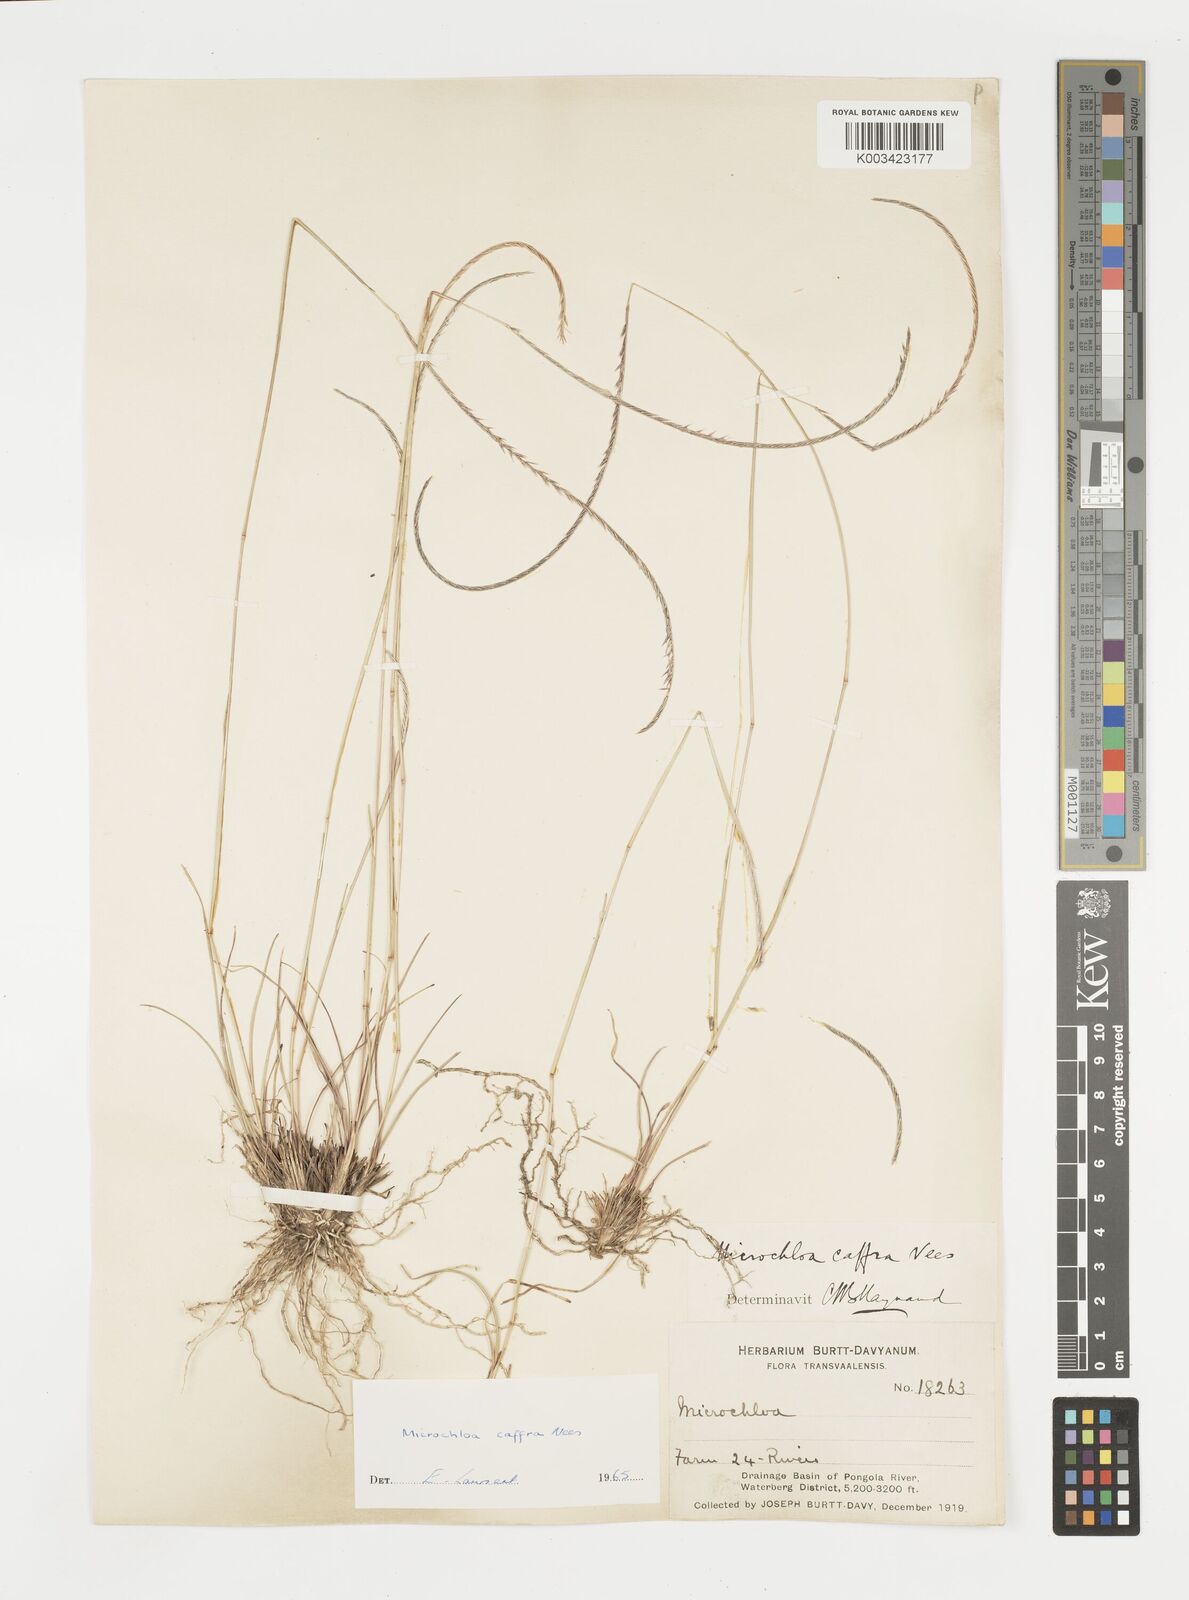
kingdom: Plantae
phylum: Tracheophyta
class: Liliopsida
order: Poales
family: Poaceae
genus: Microchloa
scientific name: Microchloa caffra
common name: Pincushion grass
